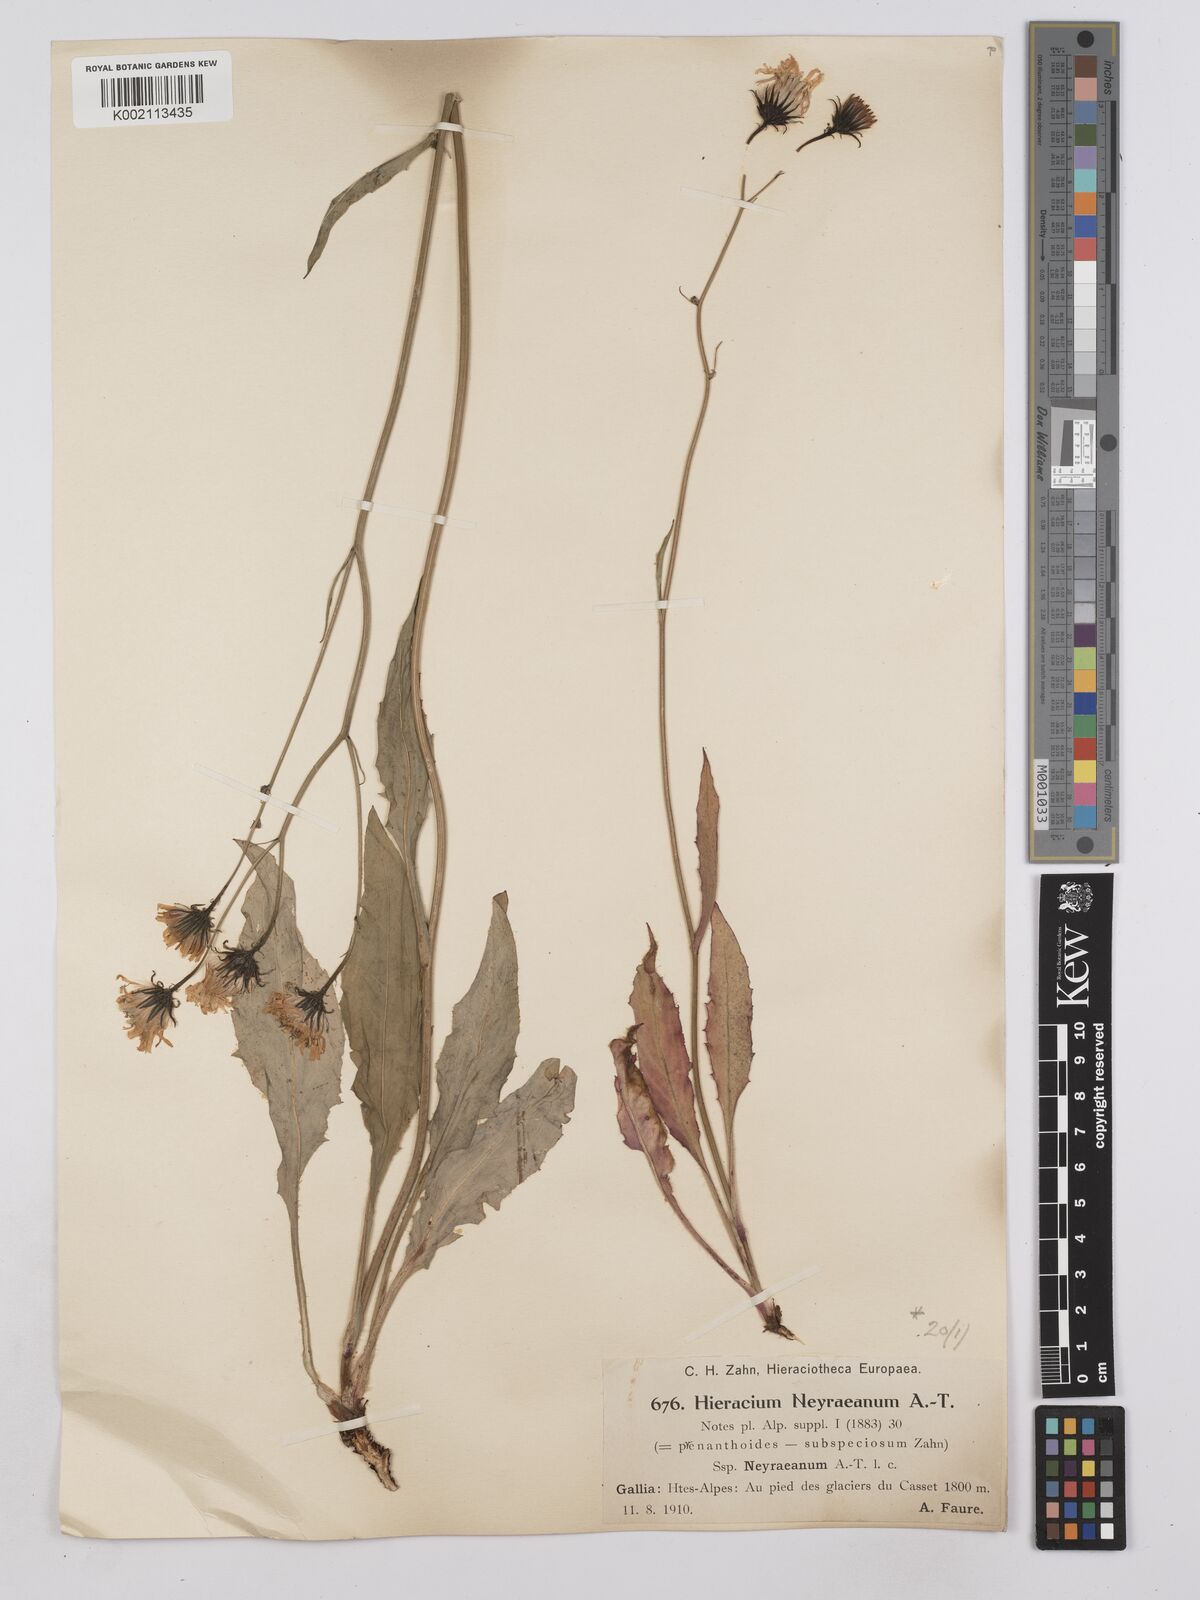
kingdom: Plantae
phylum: Tracheophyta
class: Magnoliopsida
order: Asterales
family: Asteraceae
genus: Hieracium
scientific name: Hieracium neyranum
